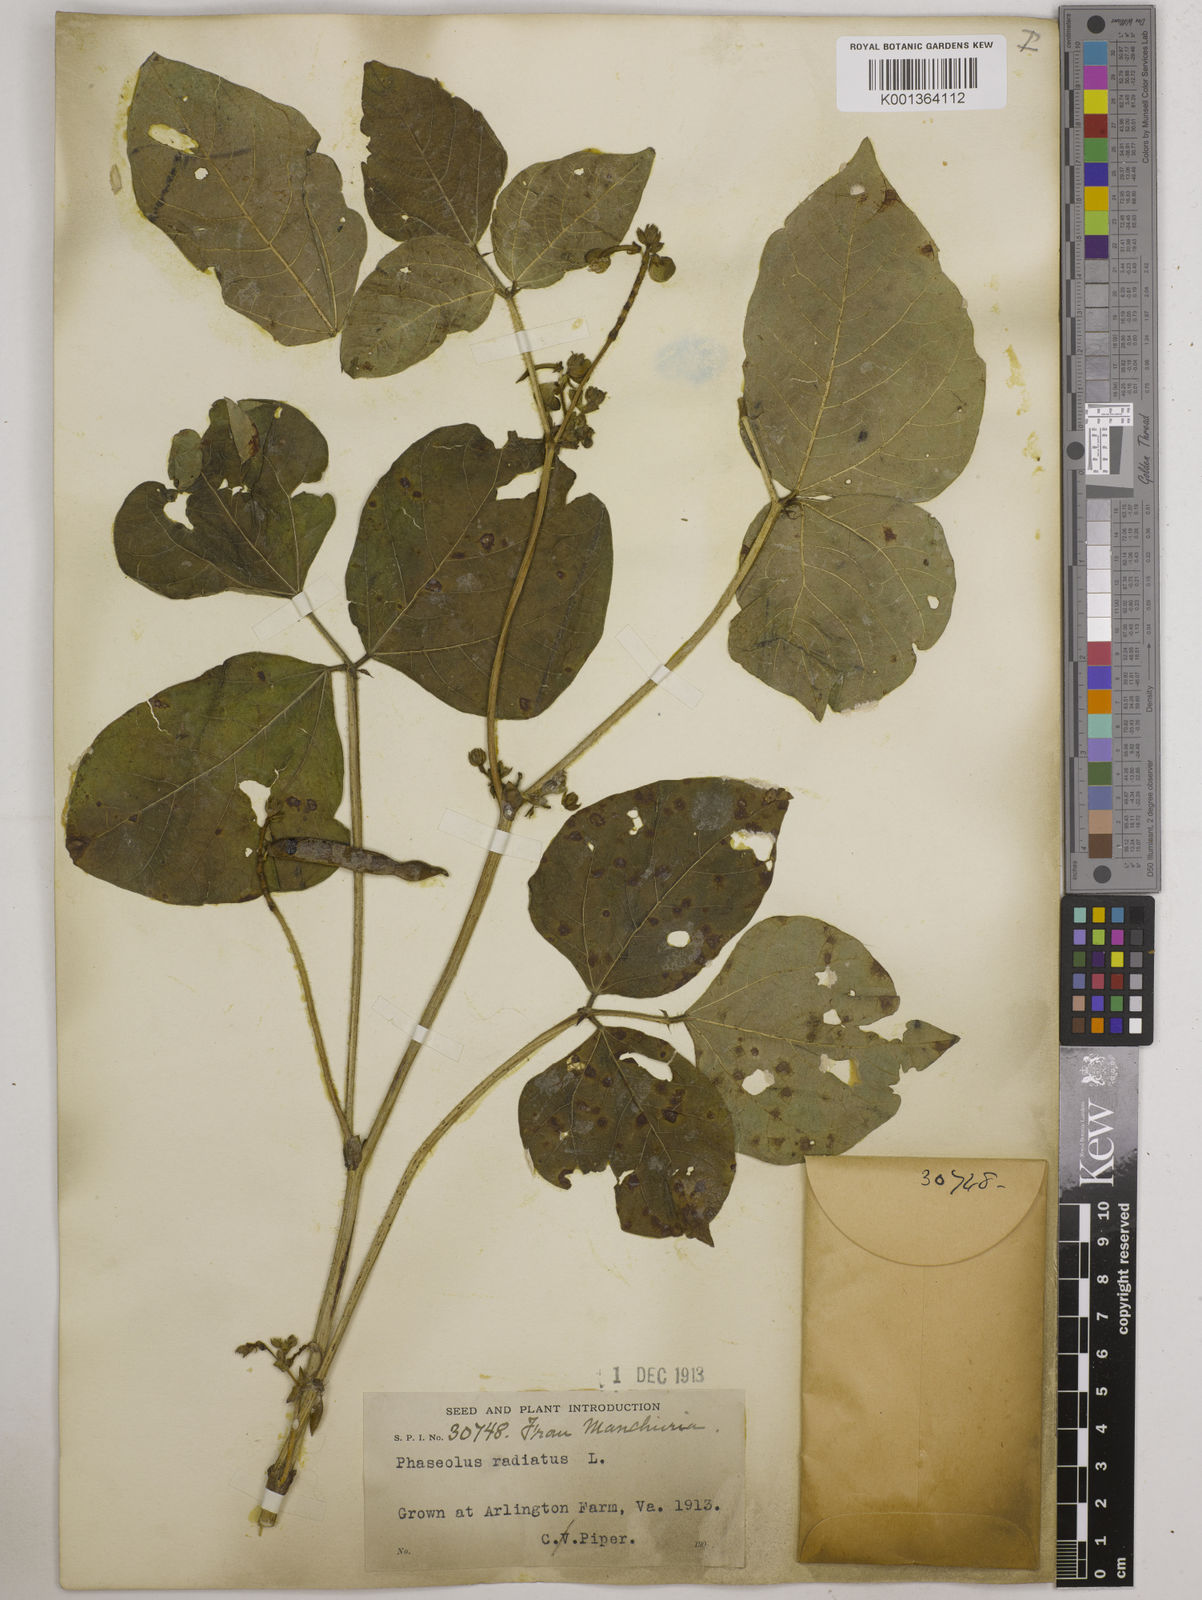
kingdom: Plantae
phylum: Tracheophyta
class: Magnoliopsida
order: Fabales
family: Fabaceae
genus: Vigna
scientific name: Vigna radiata
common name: Mung-bean
